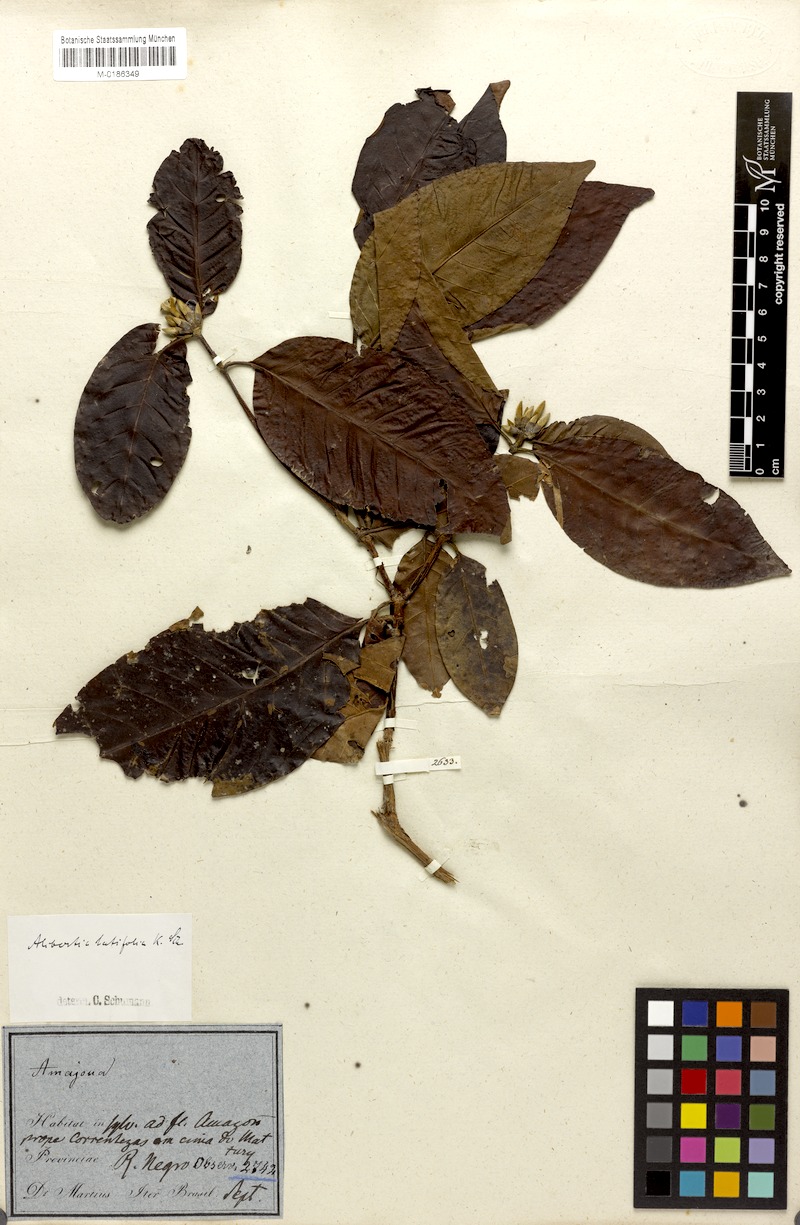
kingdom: Plantae
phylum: Tracheophyta
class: Magnoliopsida
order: Gentianales
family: Rubiaceae
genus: Alibertia
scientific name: Alibertia latifolia
